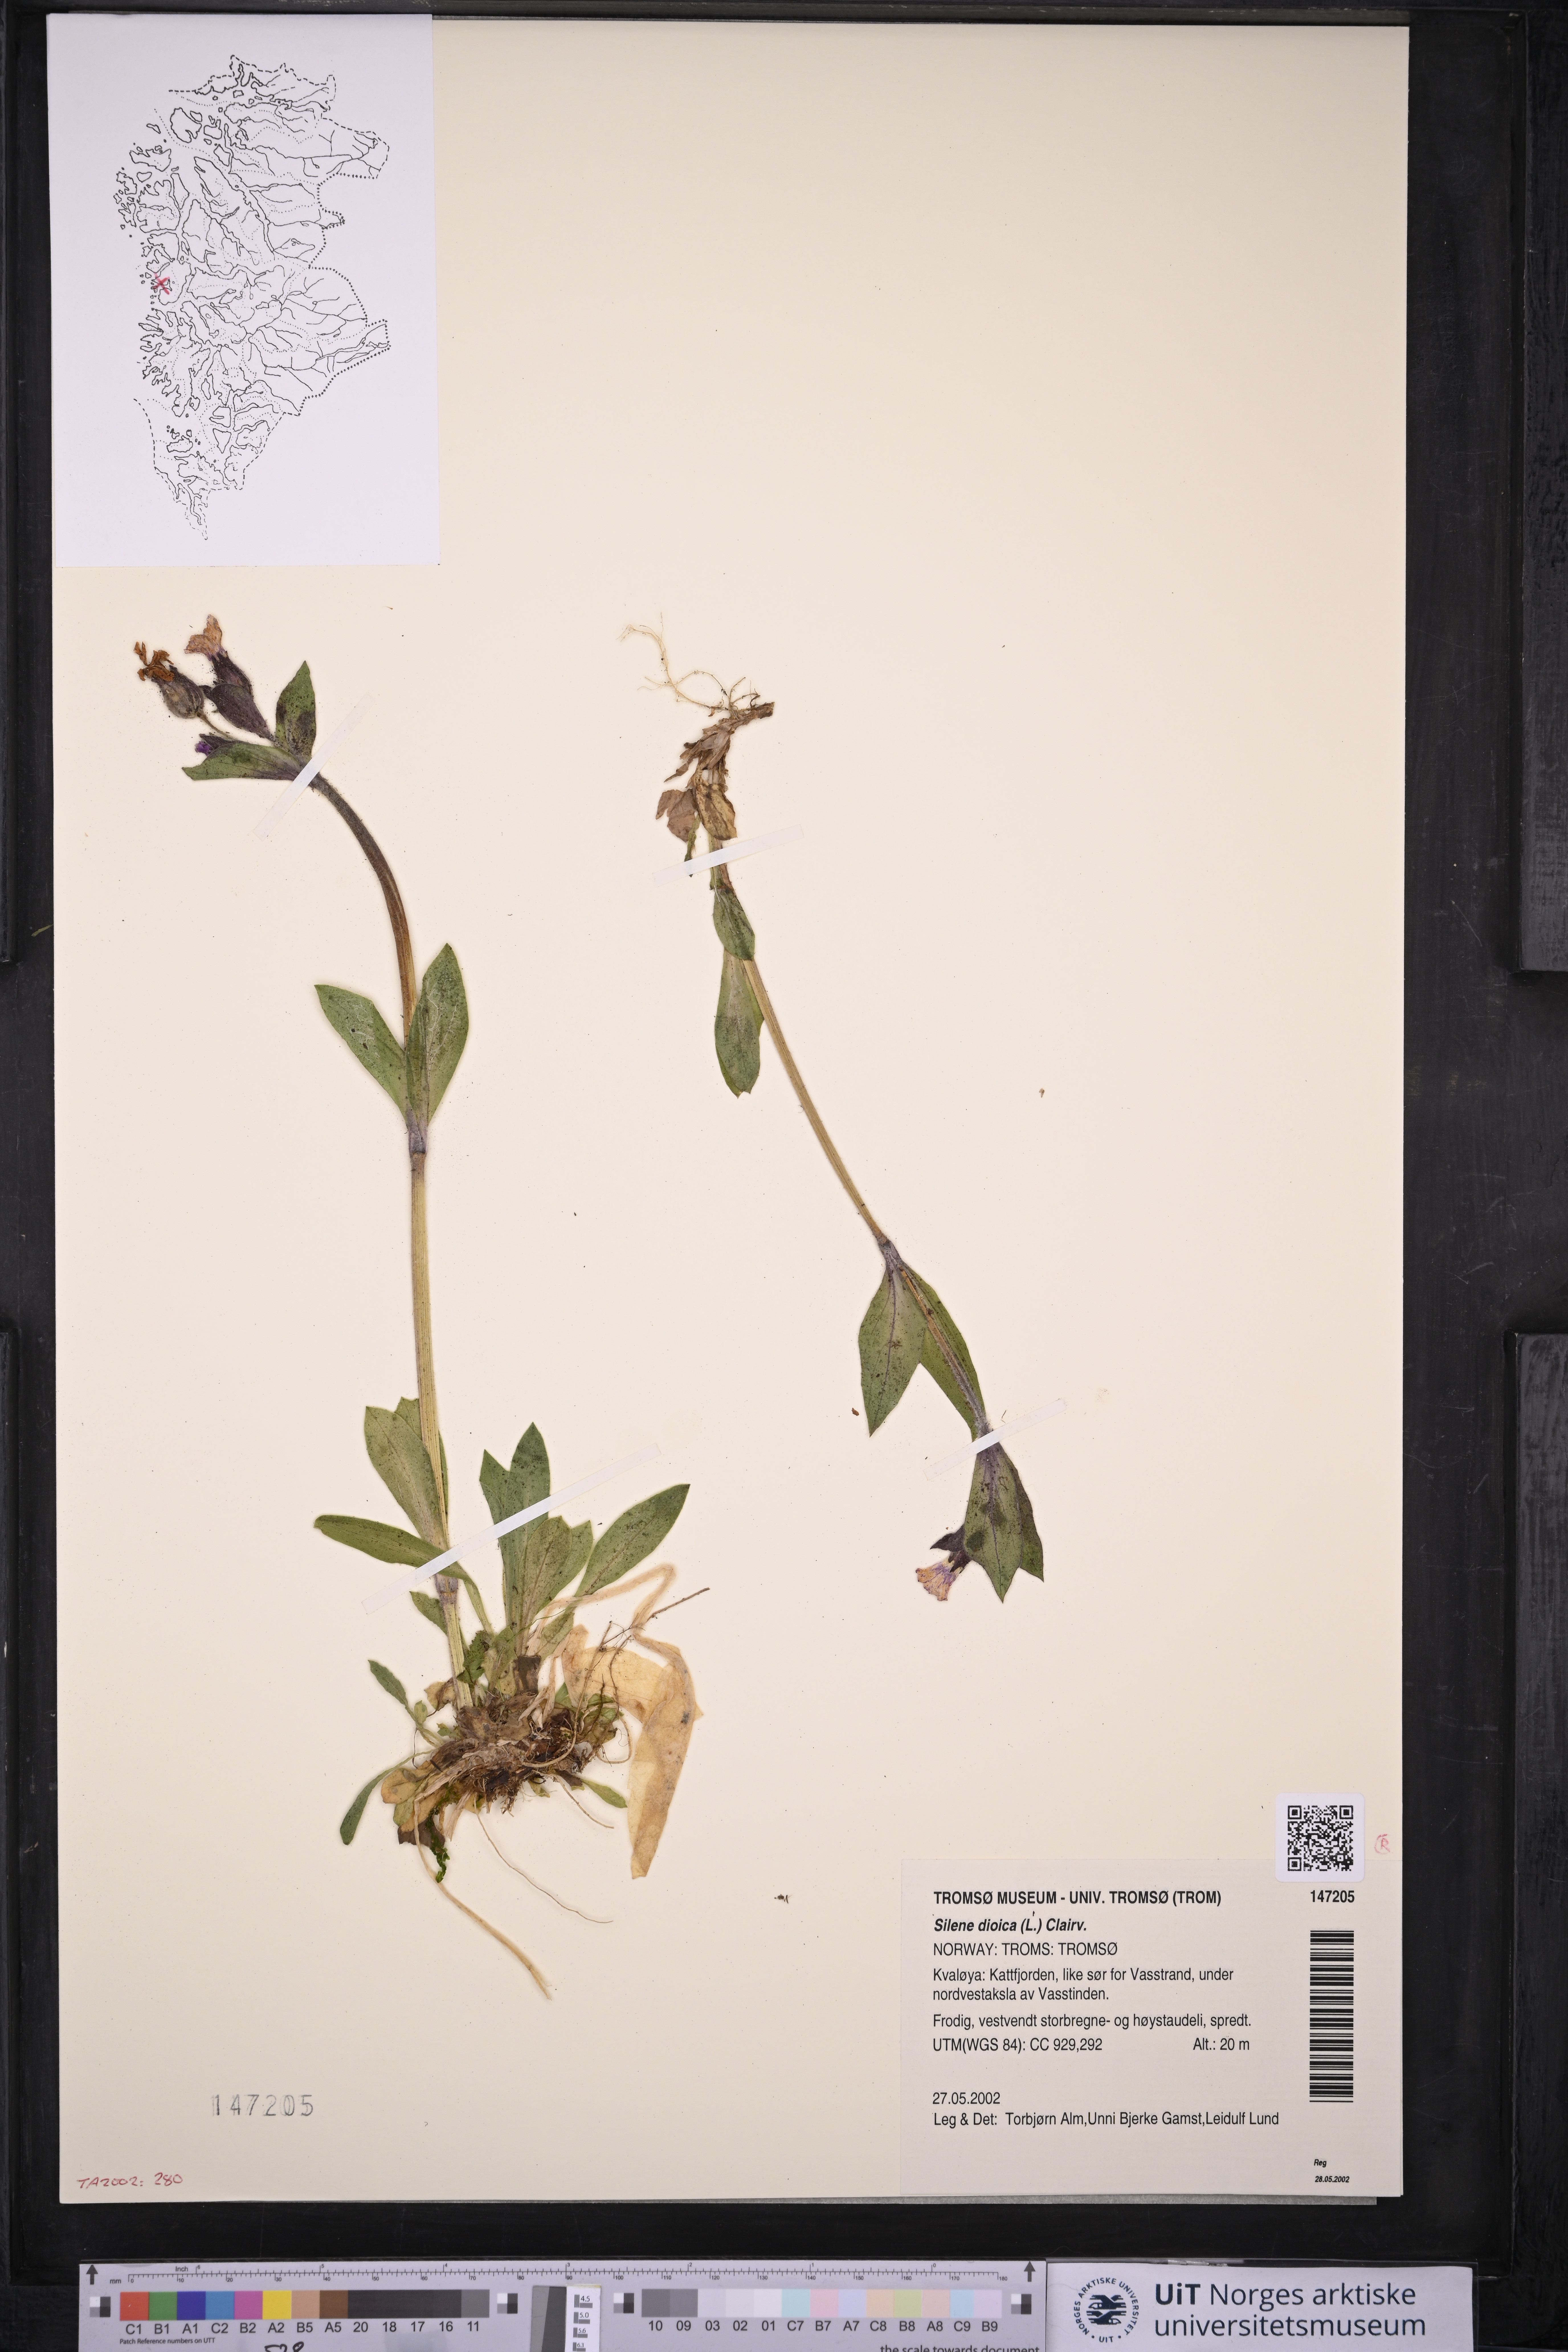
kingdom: Plantae
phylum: Tracheophyta
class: Magnoliopsida
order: Caryophyllales
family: Caryophyllaceae
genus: Silene
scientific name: Silene dioica
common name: Red campion
